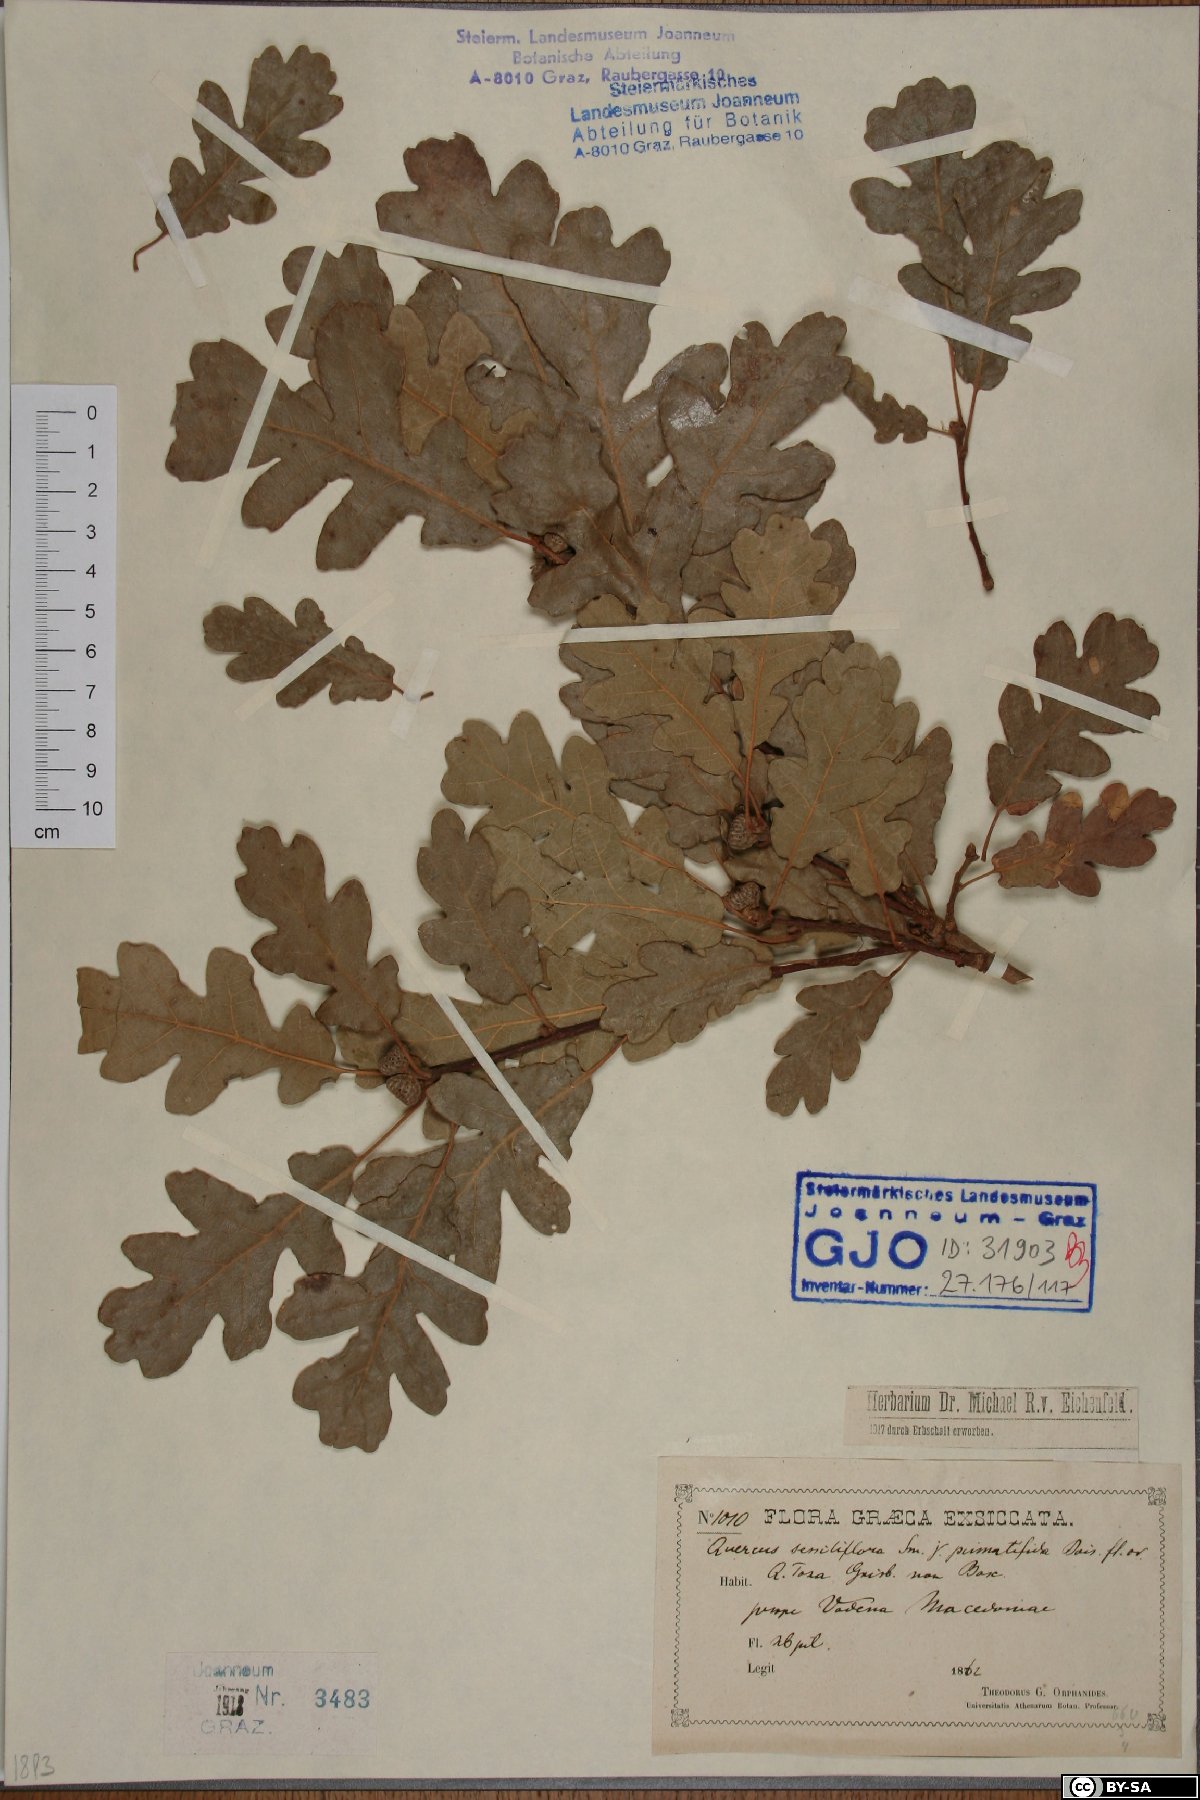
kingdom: Plantae
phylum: Tracheophyta
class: Magnoliopsida
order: Fagales
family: Fagaceae
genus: Quercus
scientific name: Quercus petraea
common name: Sessile oak
